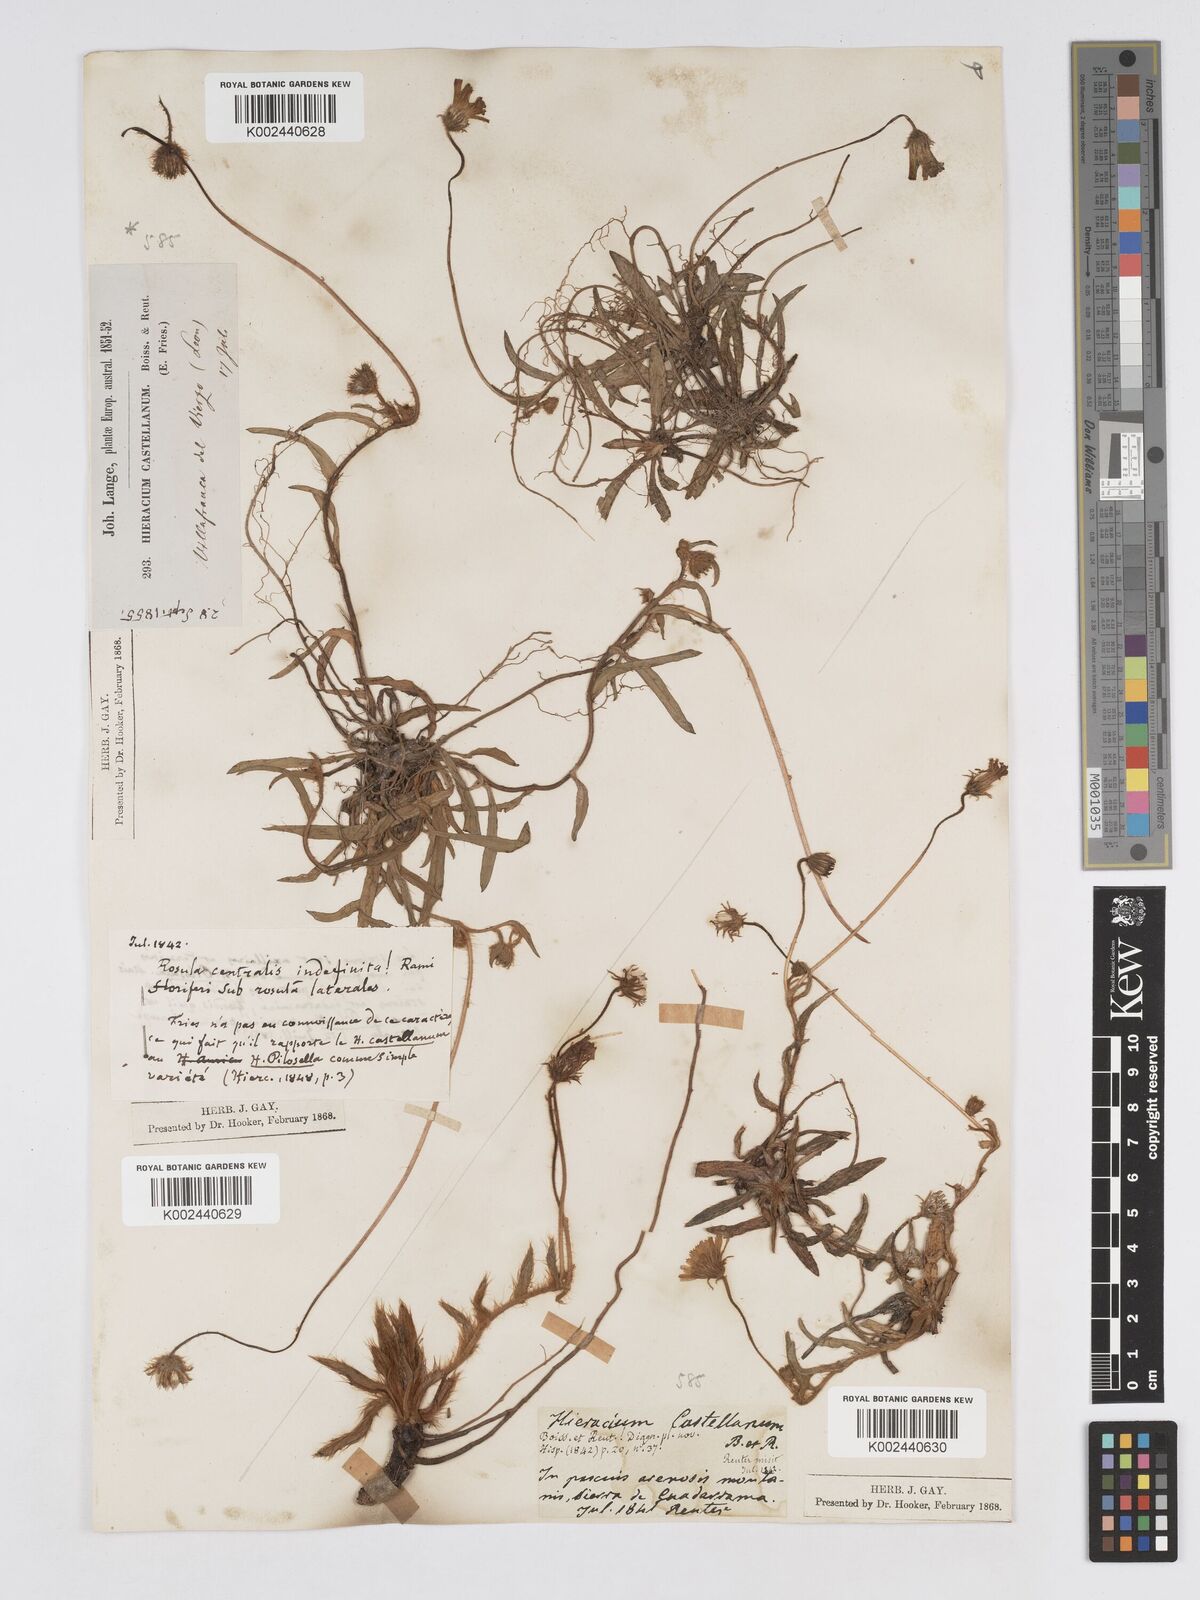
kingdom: Plantae
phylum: Tracheophyta
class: Magnoliopsida
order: Asterales
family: Asteraceae
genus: Pilosella
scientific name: Pilosella castellana
